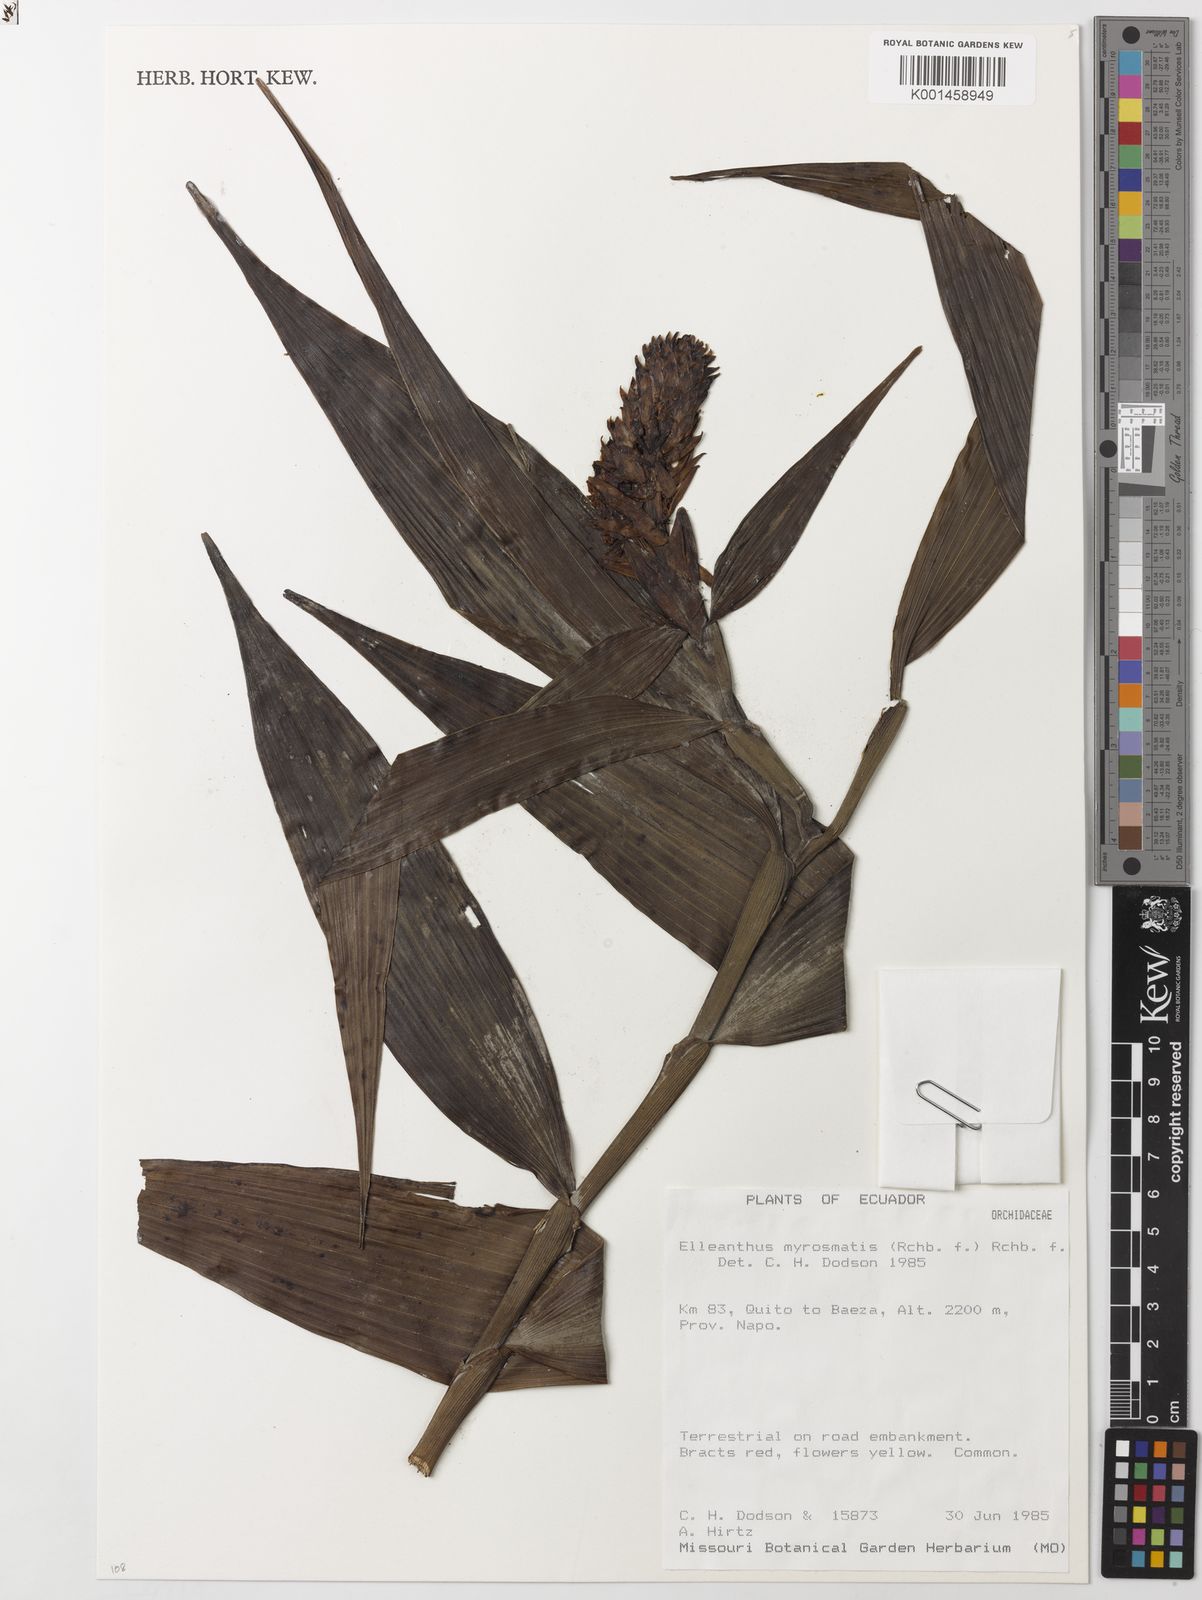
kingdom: Plantae
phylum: Tracheophyta
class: Liliopsida
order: Asparagales
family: Orchidaceae
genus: Elleanthus
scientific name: Elleanthus myrosmatis
